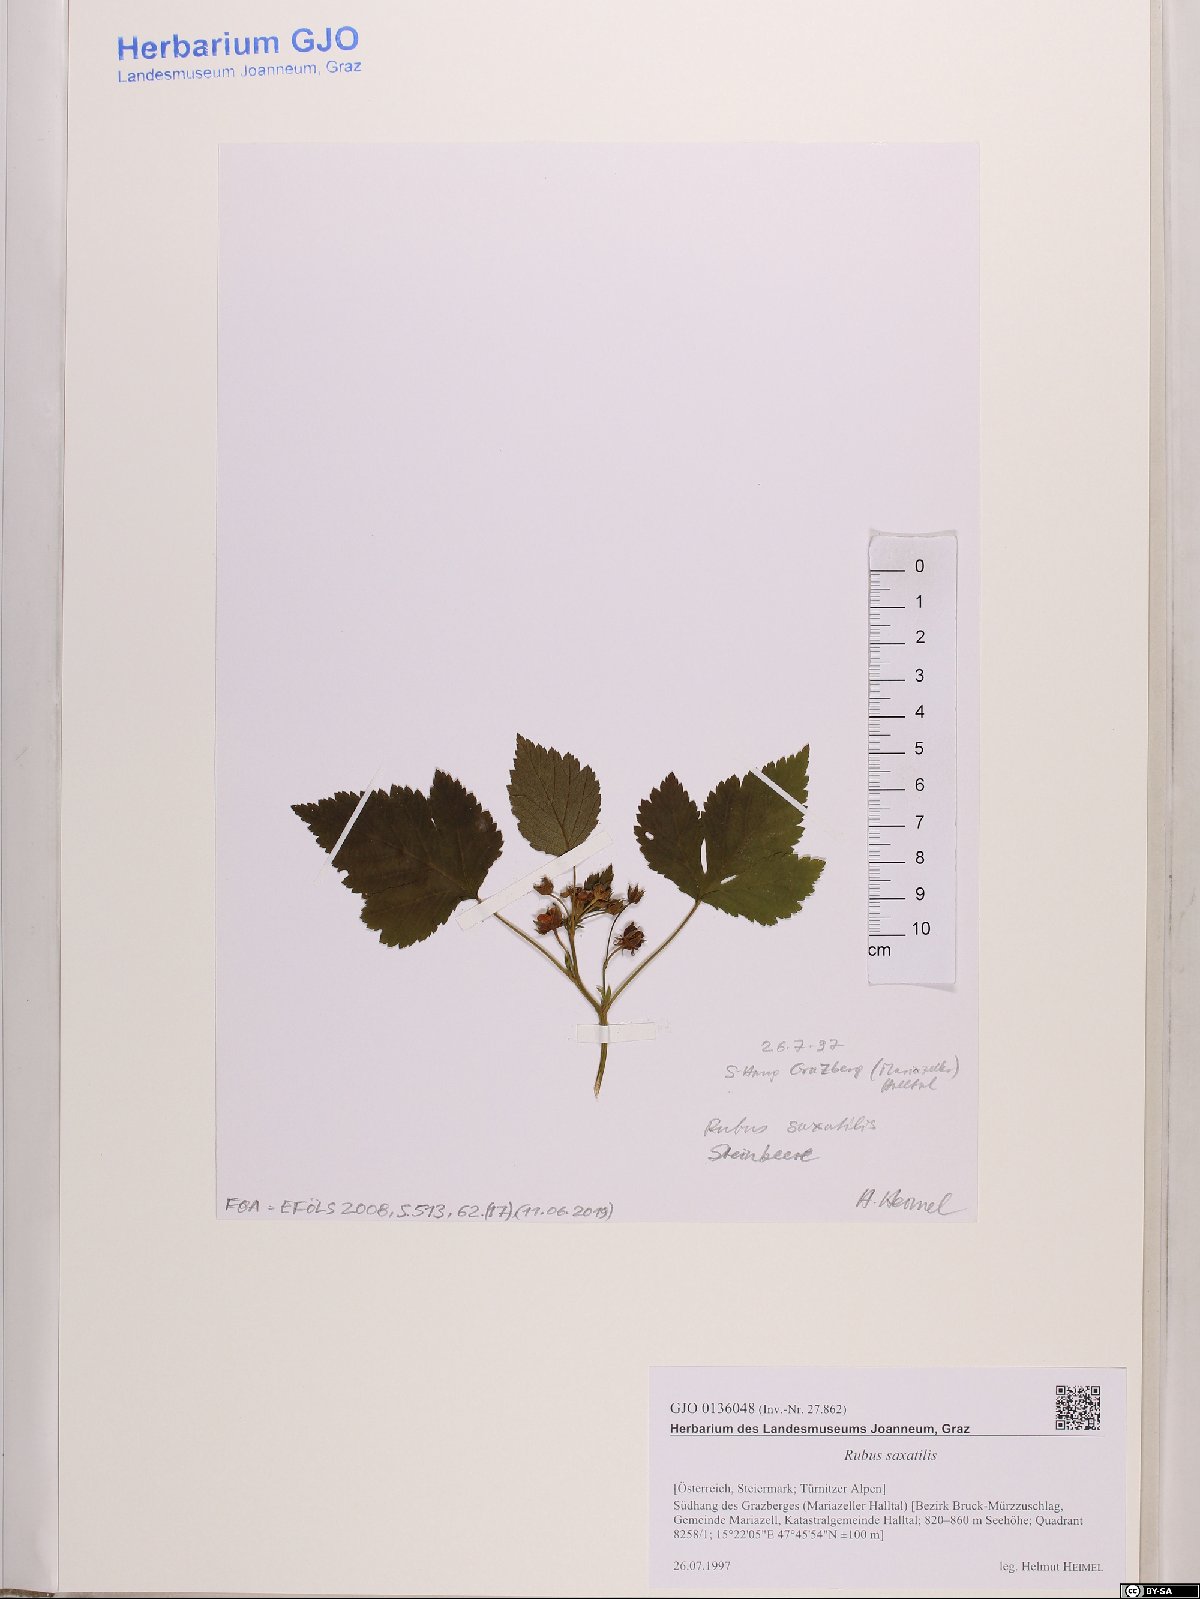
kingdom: Plantae
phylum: Tracheophyta
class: Magnoliopsida
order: Rosales
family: Rosaceae
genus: Rubus
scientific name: Rubus saxatilis
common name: Stone bramble
